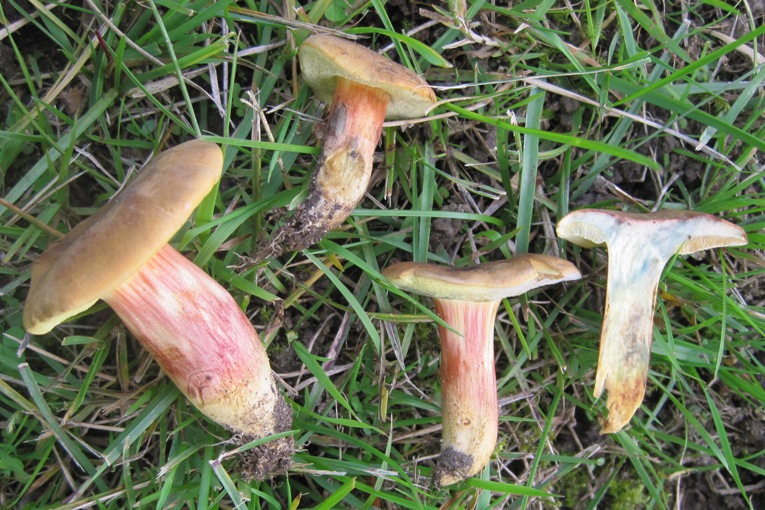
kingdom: Fungi
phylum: Basidiomycota
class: Agaricomycetes
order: Boletales
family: Boletaceae
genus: Hortiboletus
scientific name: Hortiboletus bubalinus
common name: aurora-rørhat
